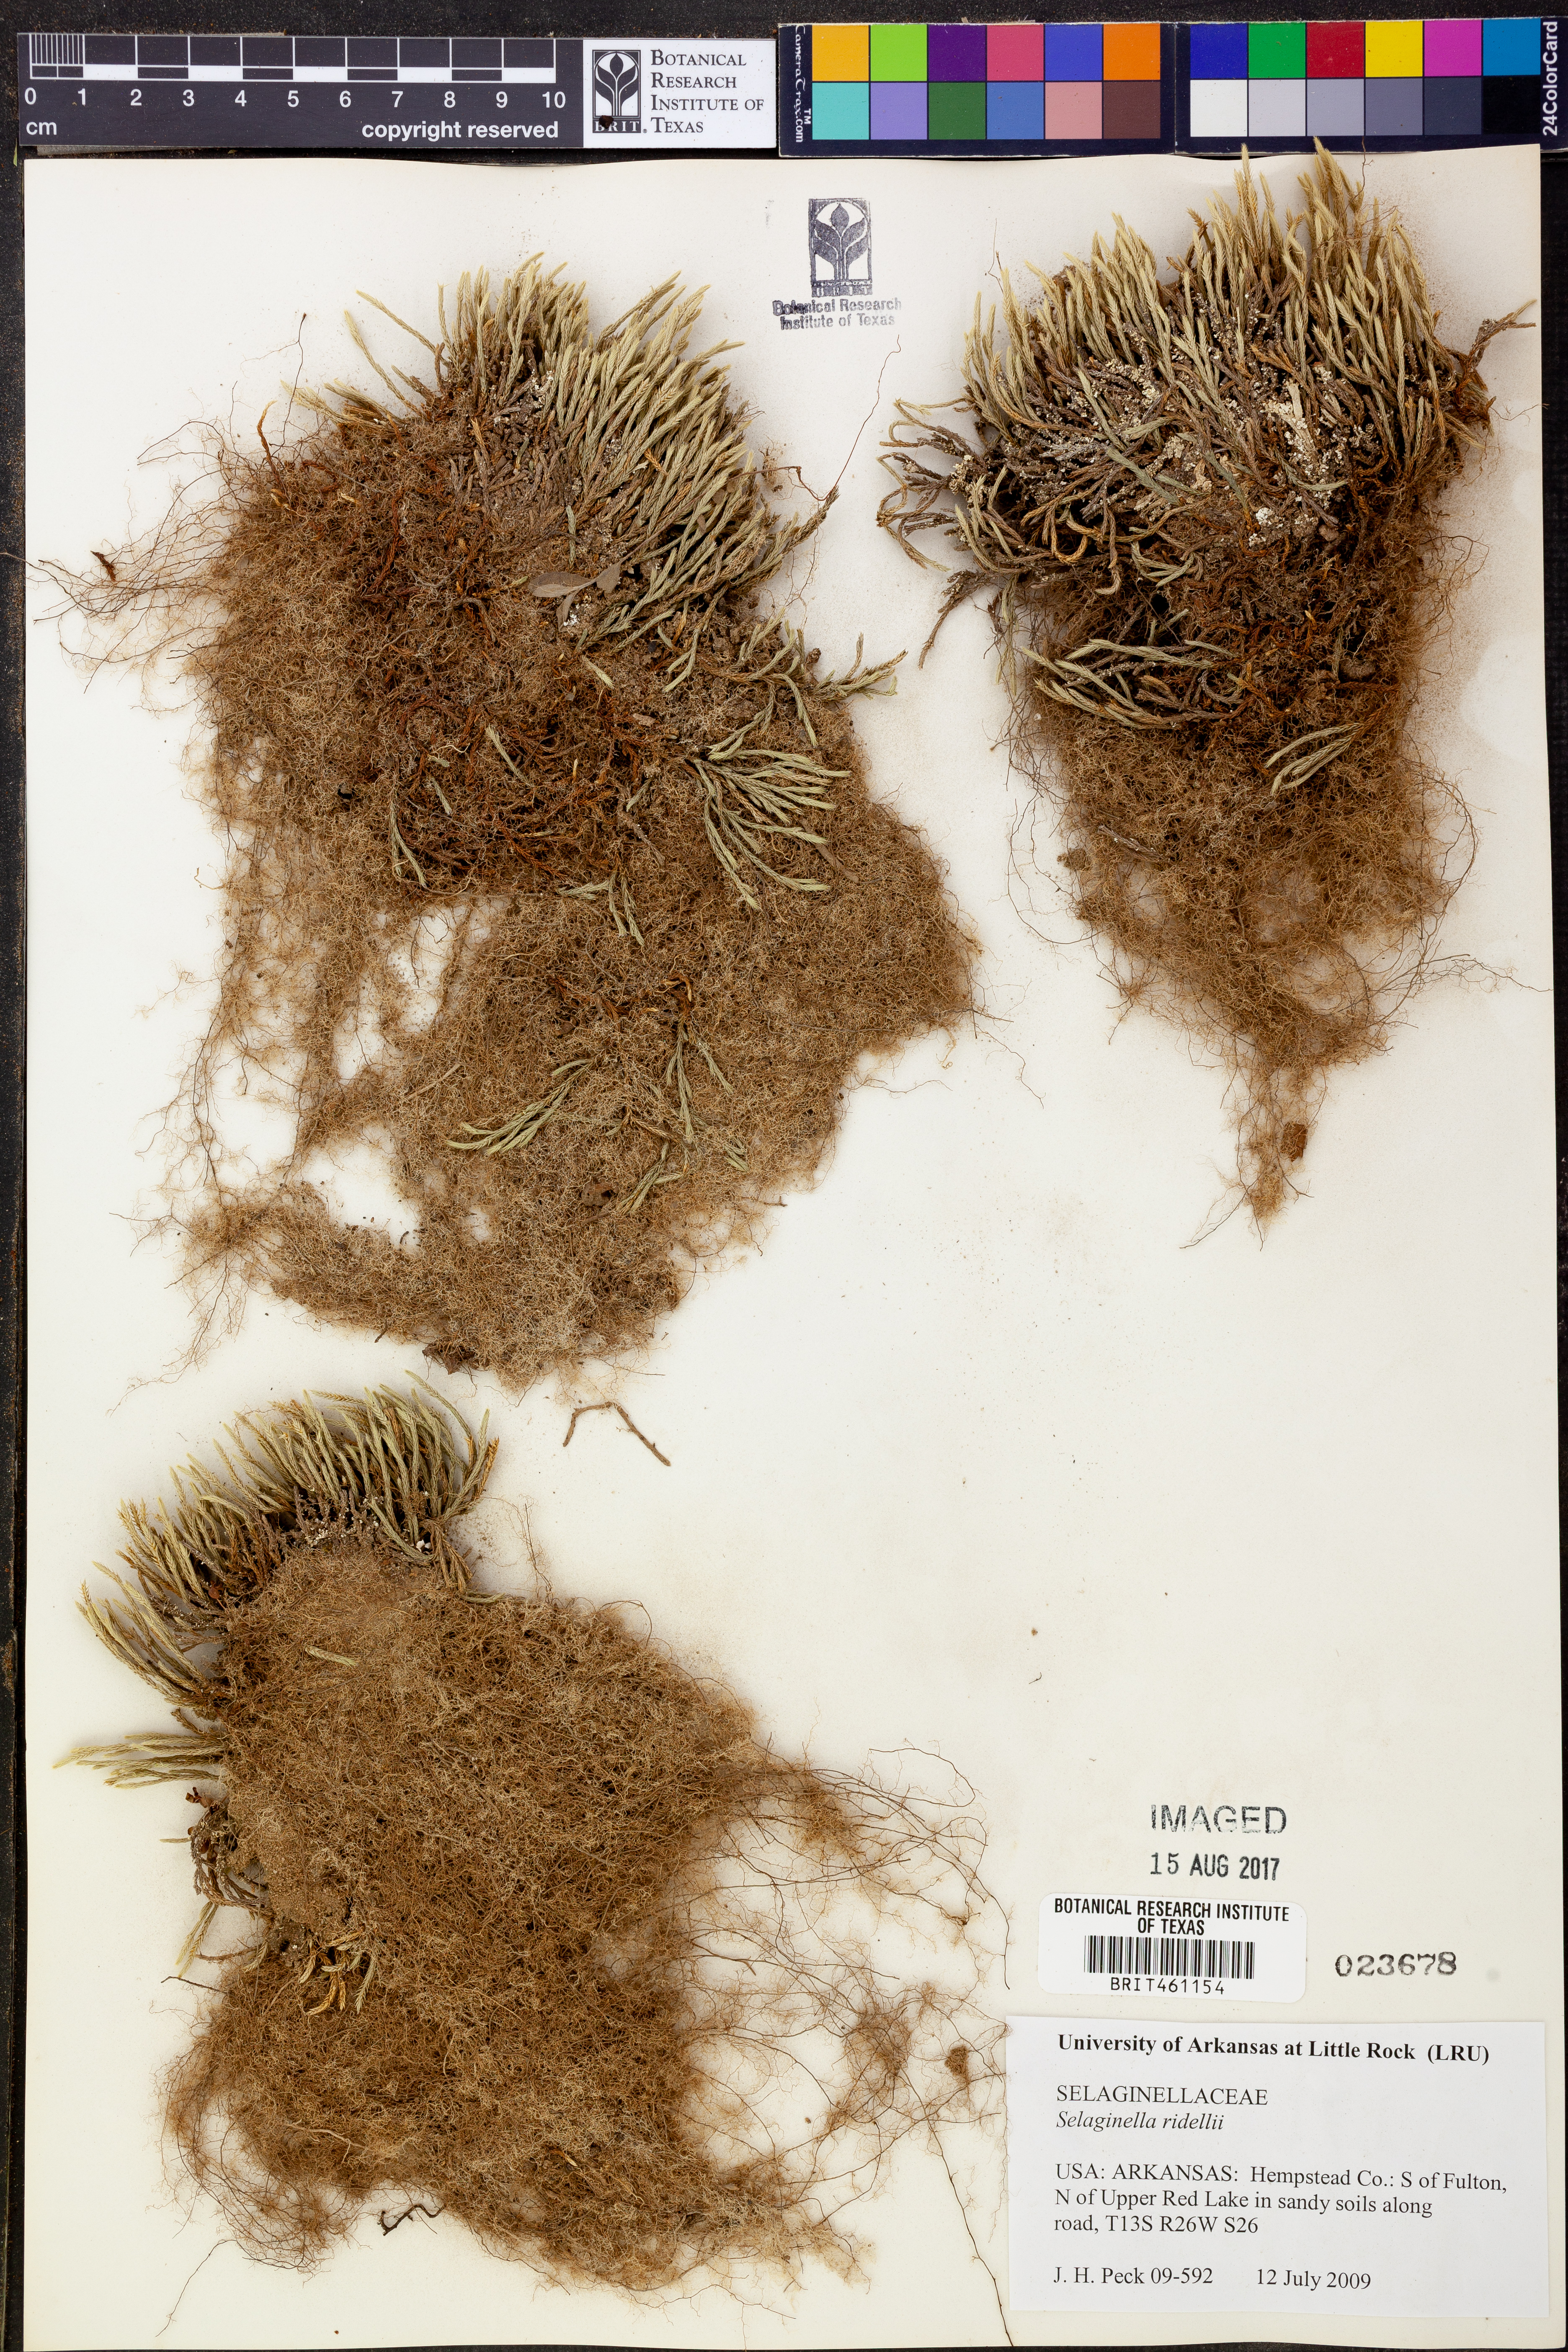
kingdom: Plantae
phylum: Tracheophyta
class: Lycopodiopsida
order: Selaginellales
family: Selaginellaceae
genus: Selaginella
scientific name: Selaginella corallina
